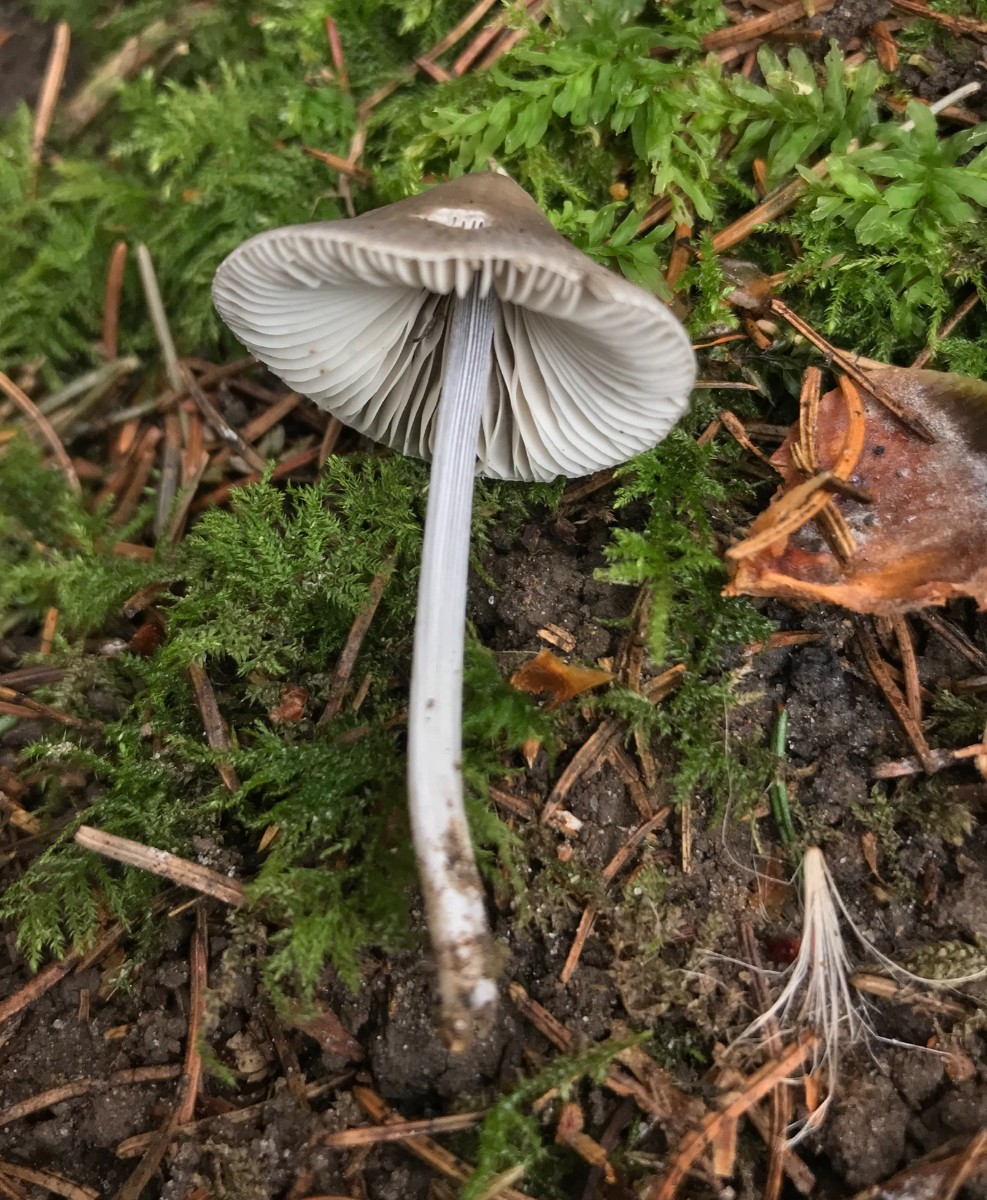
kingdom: Fungi
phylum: Basidiomycota
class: Agaricomycetes
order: Agaricales
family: Mycenaceae
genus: Mycena
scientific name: Mycena polygramma
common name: mangestribet huesvamp
